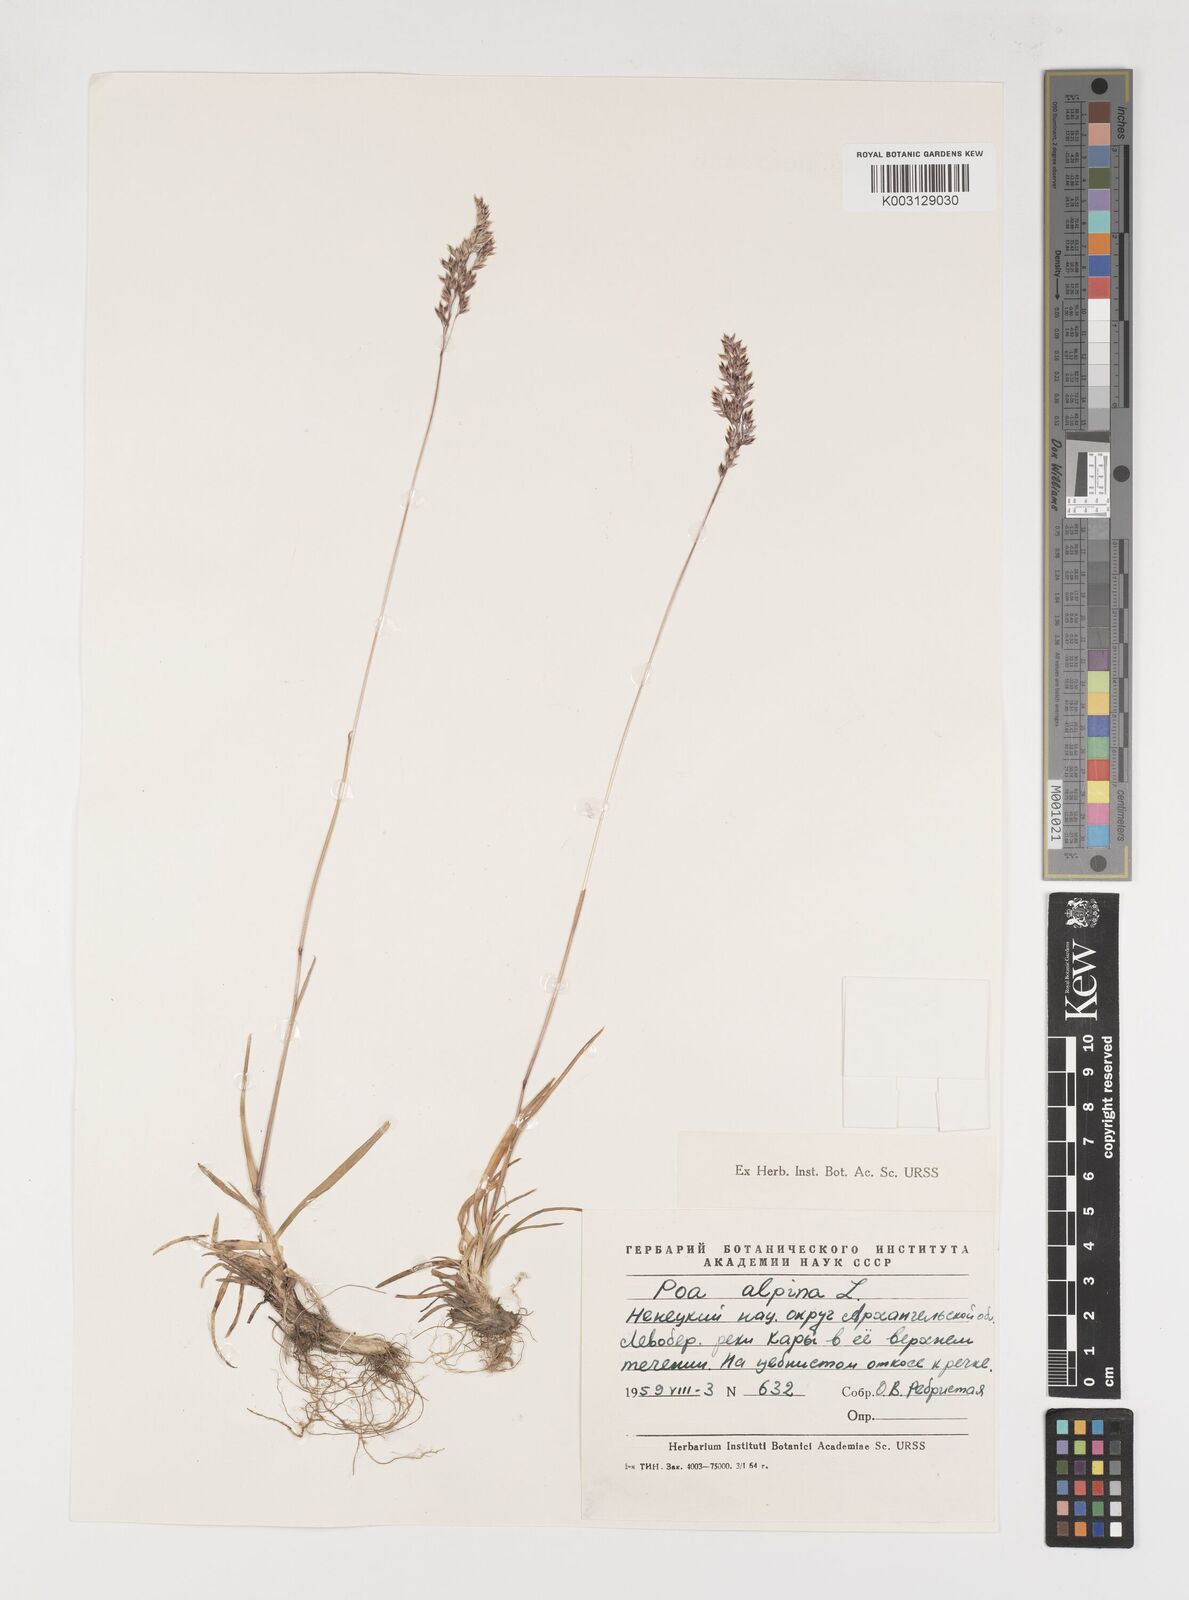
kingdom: Plantae
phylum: Tracheophyta
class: Liliopsida
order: Poales
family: Poaceae
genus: Poa
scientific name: Poa alpina
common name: Alpine bluegrass
